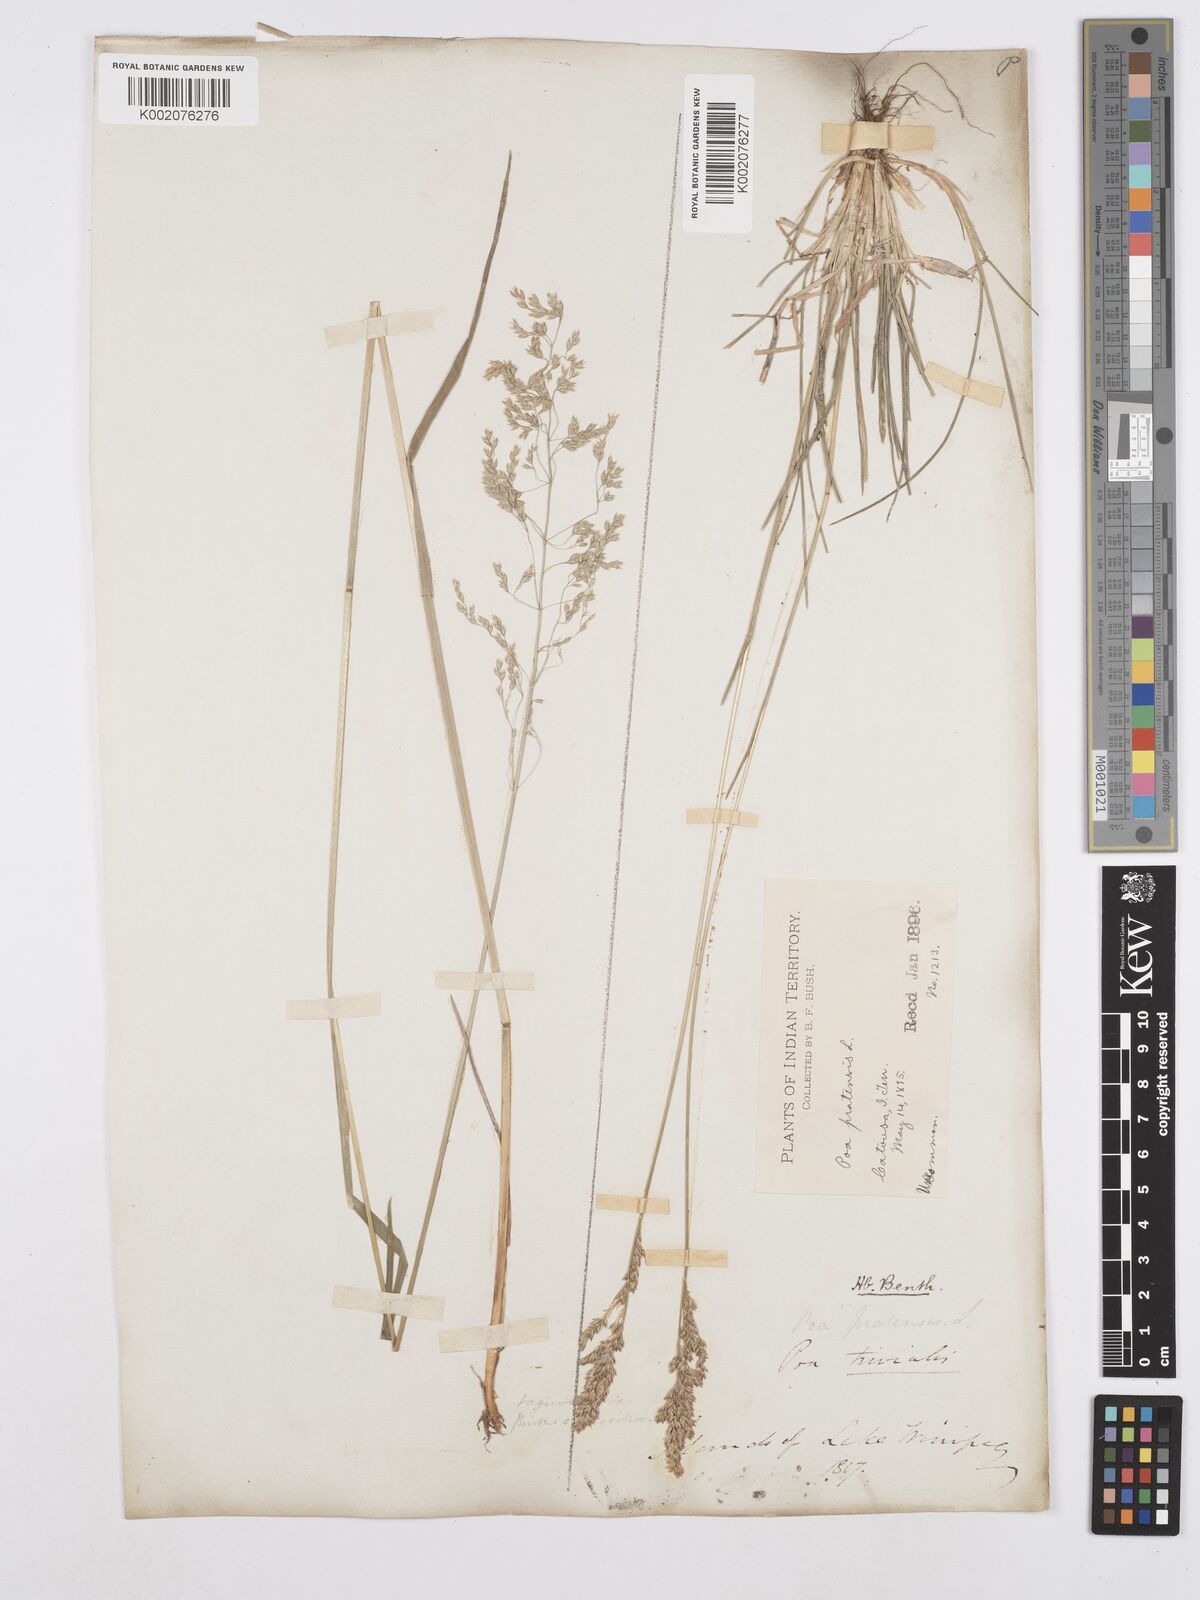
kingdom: Plantae
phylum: Tracheophyta
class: Liliopsida
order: Poales
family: Poaceae
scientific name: Poaceae
